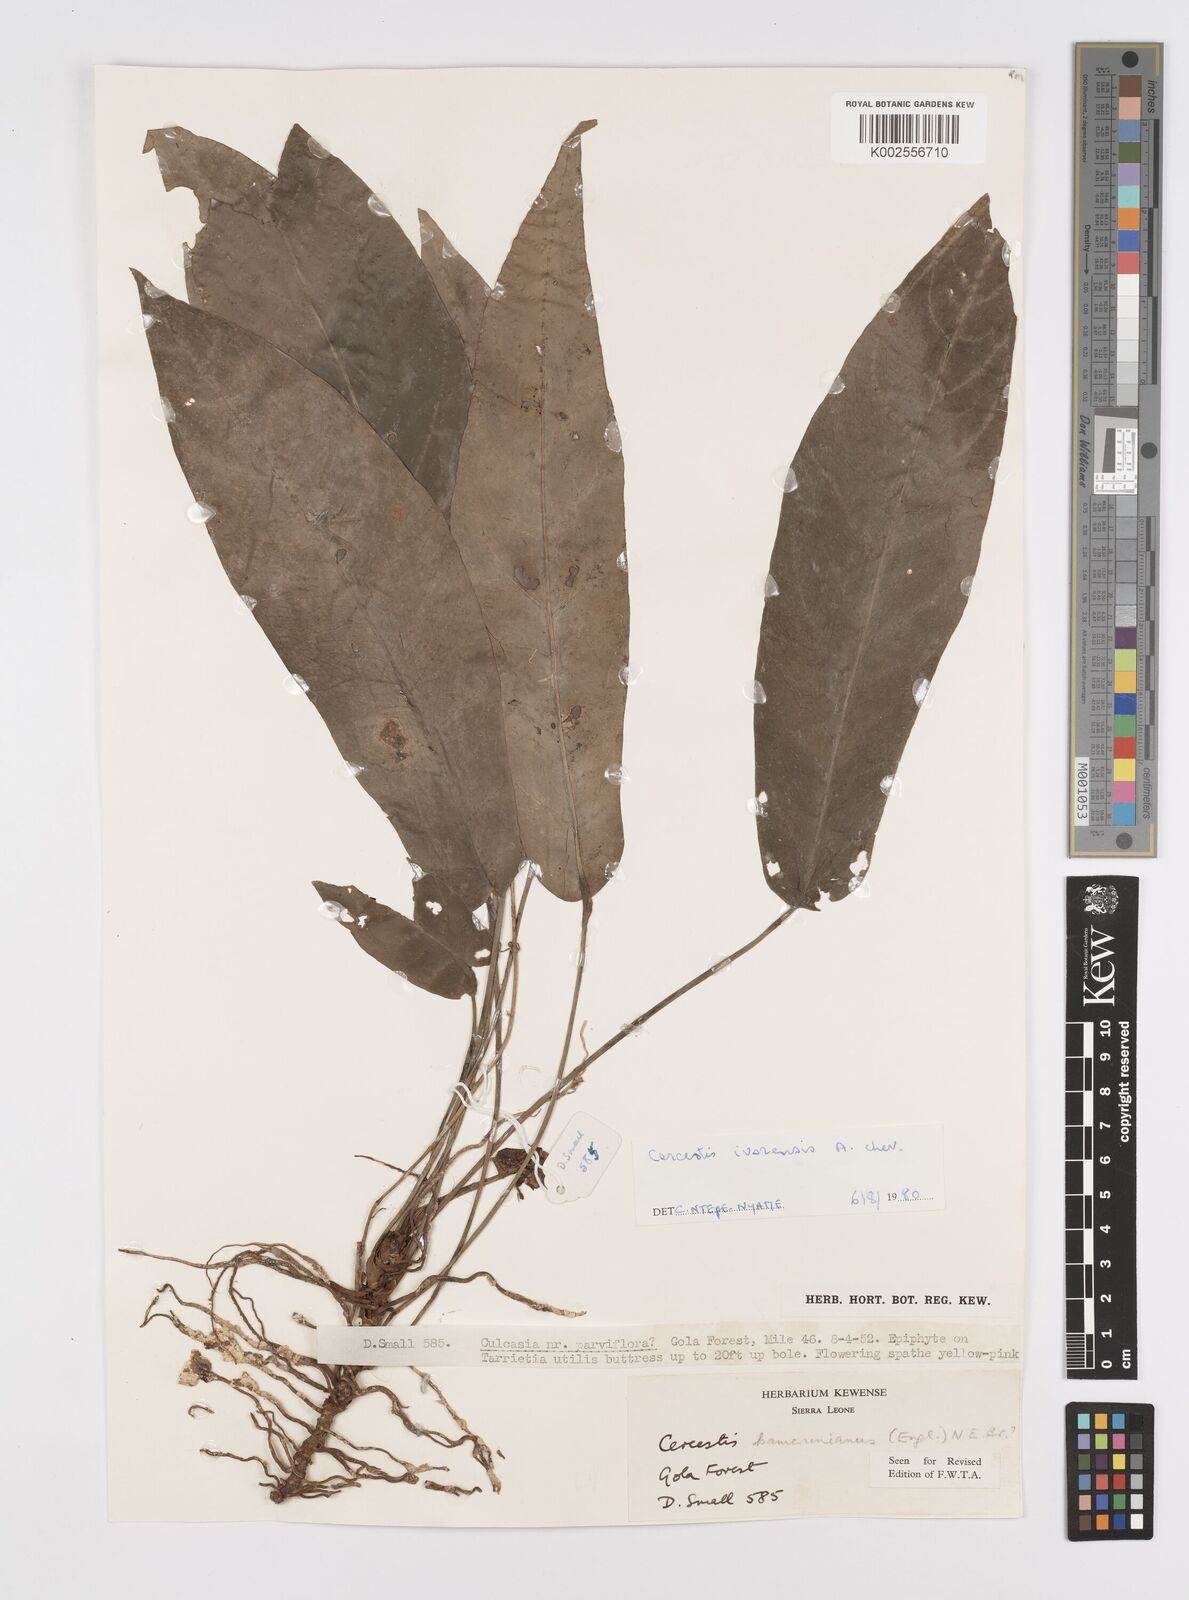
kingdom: Plantae
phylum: Tracheophyta
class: Liliopsida
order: Alismatales
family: Araceae
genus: Cercestis
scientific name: Cercestis ivorensis
